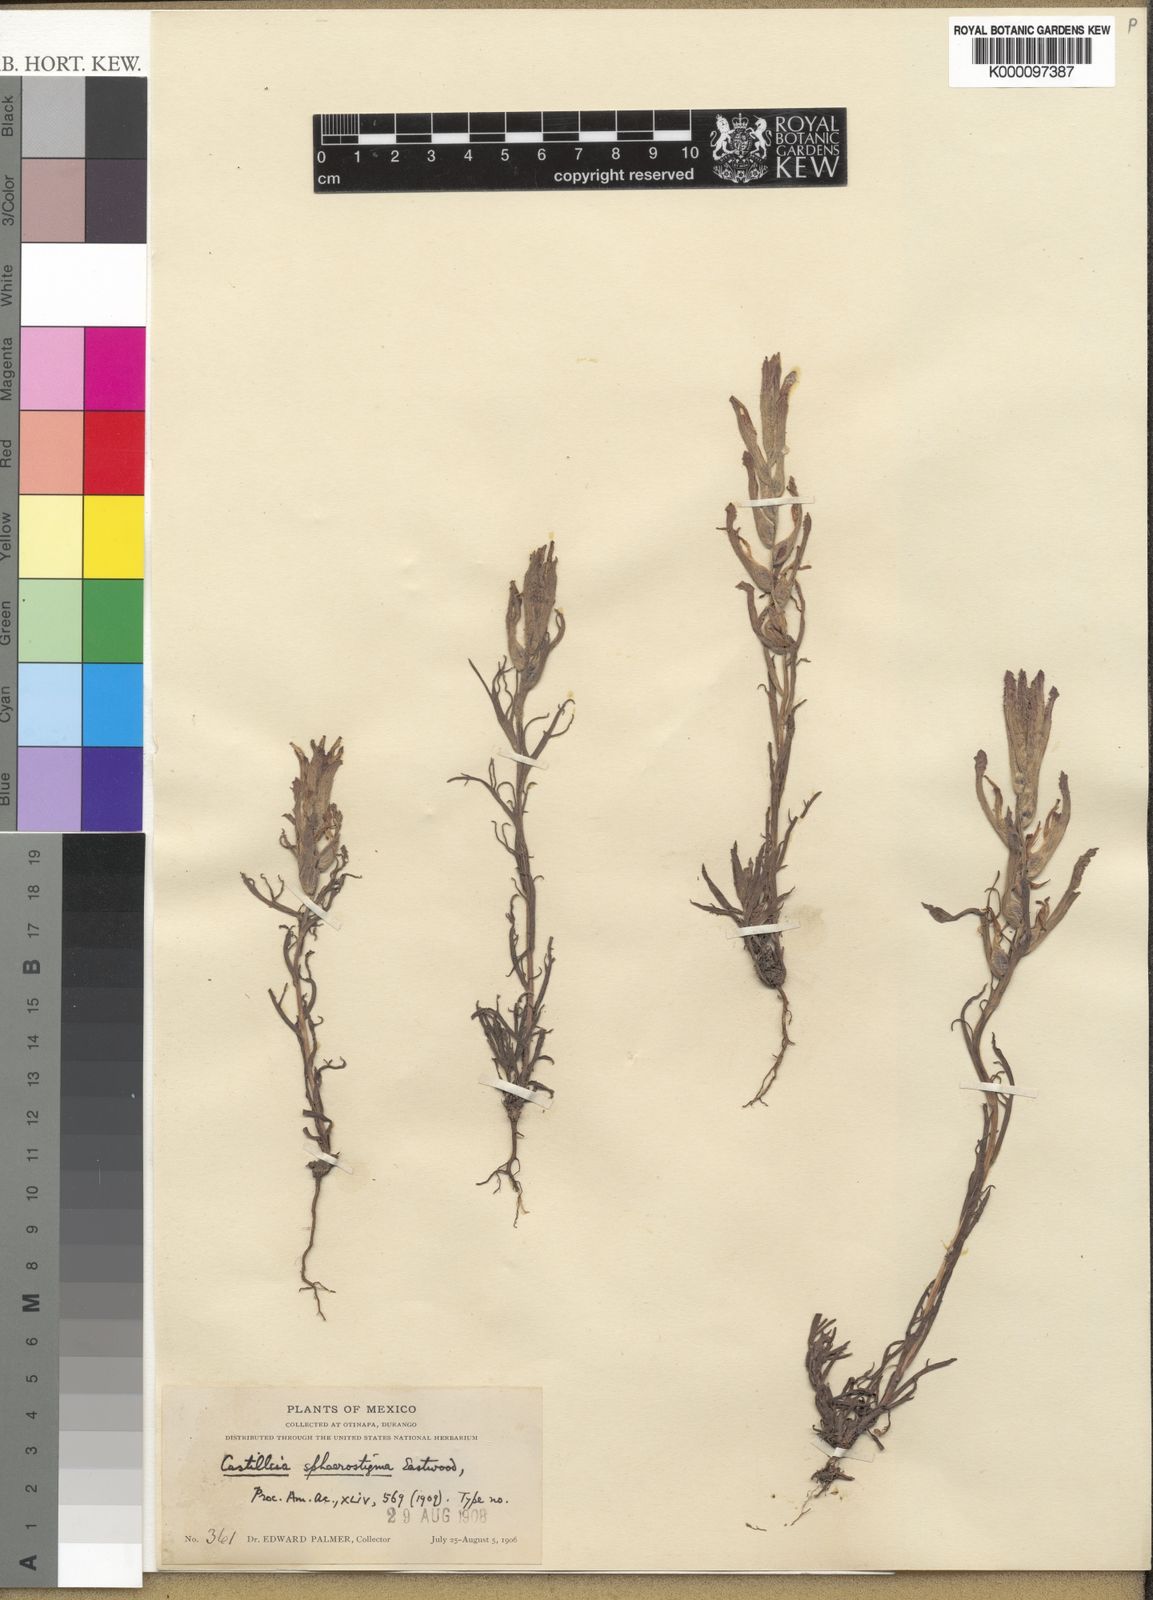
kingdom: Plantae
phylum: Tracheophyta
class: Magnoliopsida
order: Lamiales
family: Orobanchaceae
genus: Castilleja
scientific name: Castilleja sphaerostigma
